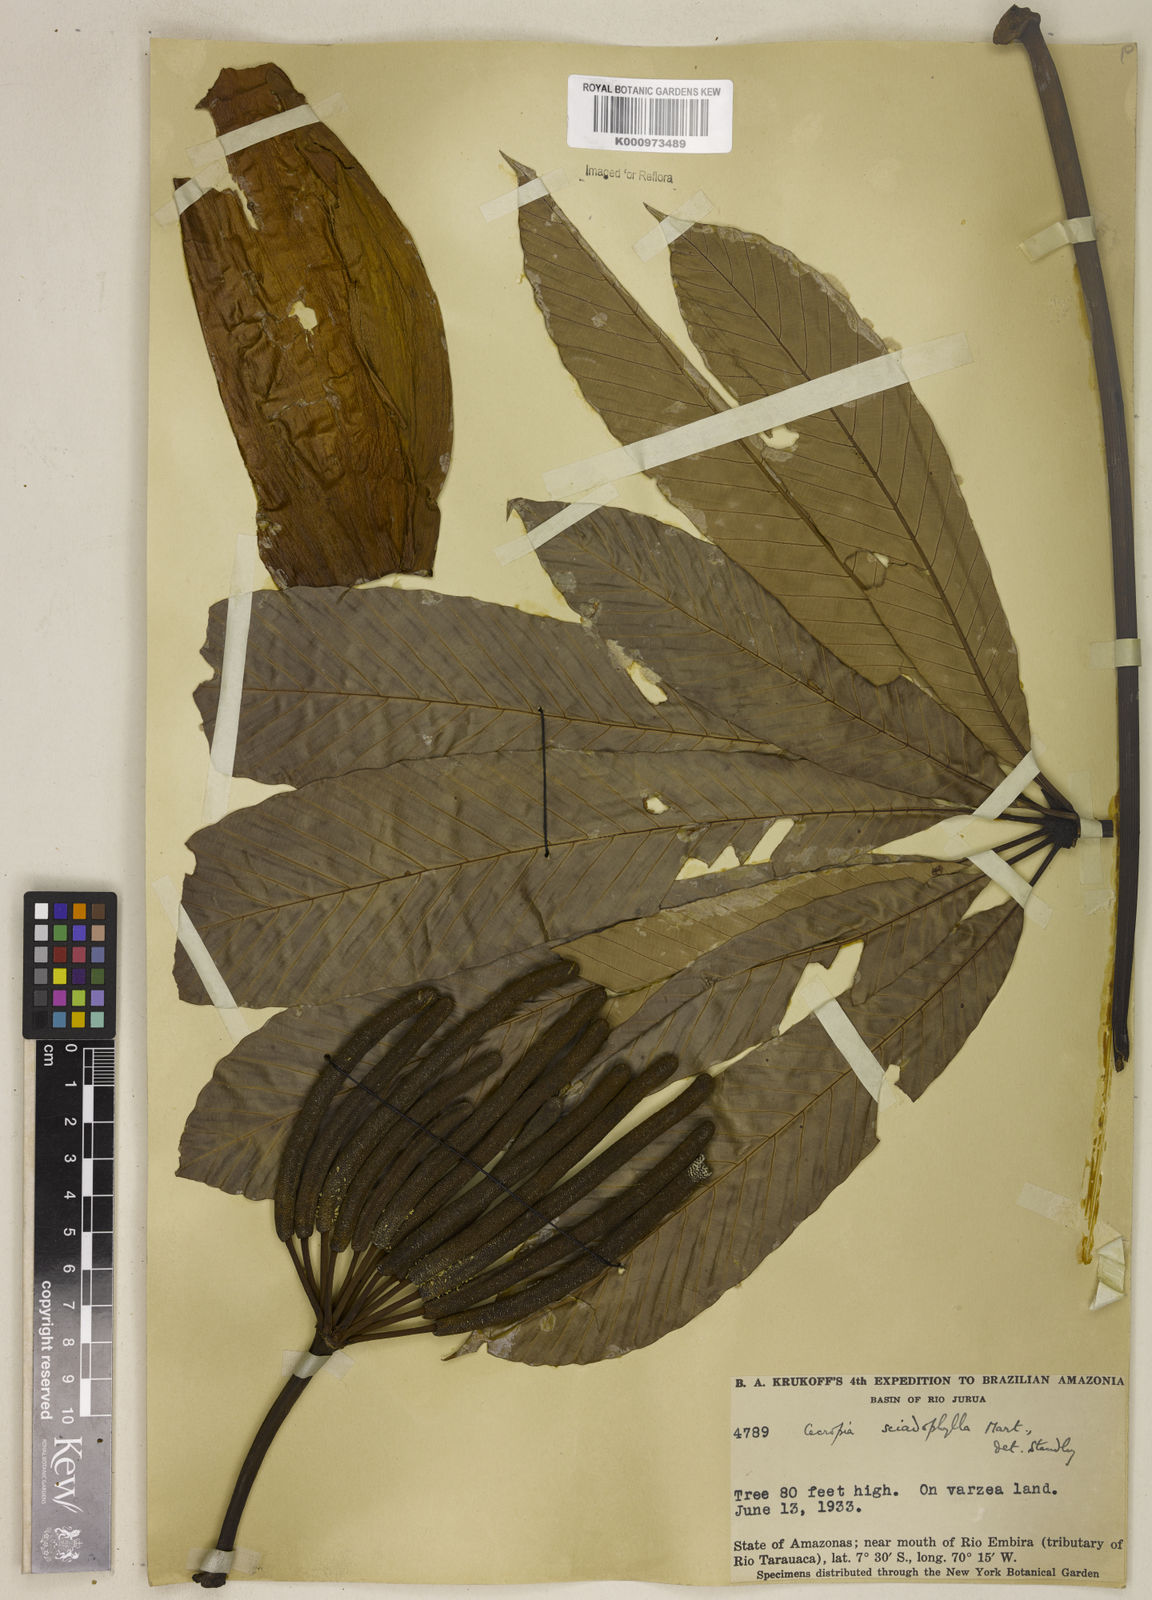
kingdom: Plantae
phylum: Tracheophyta
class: Magnoliopsida
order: Rosales
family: Urticaceae
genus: Cecropia
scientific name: Cecropia sciadophylla
